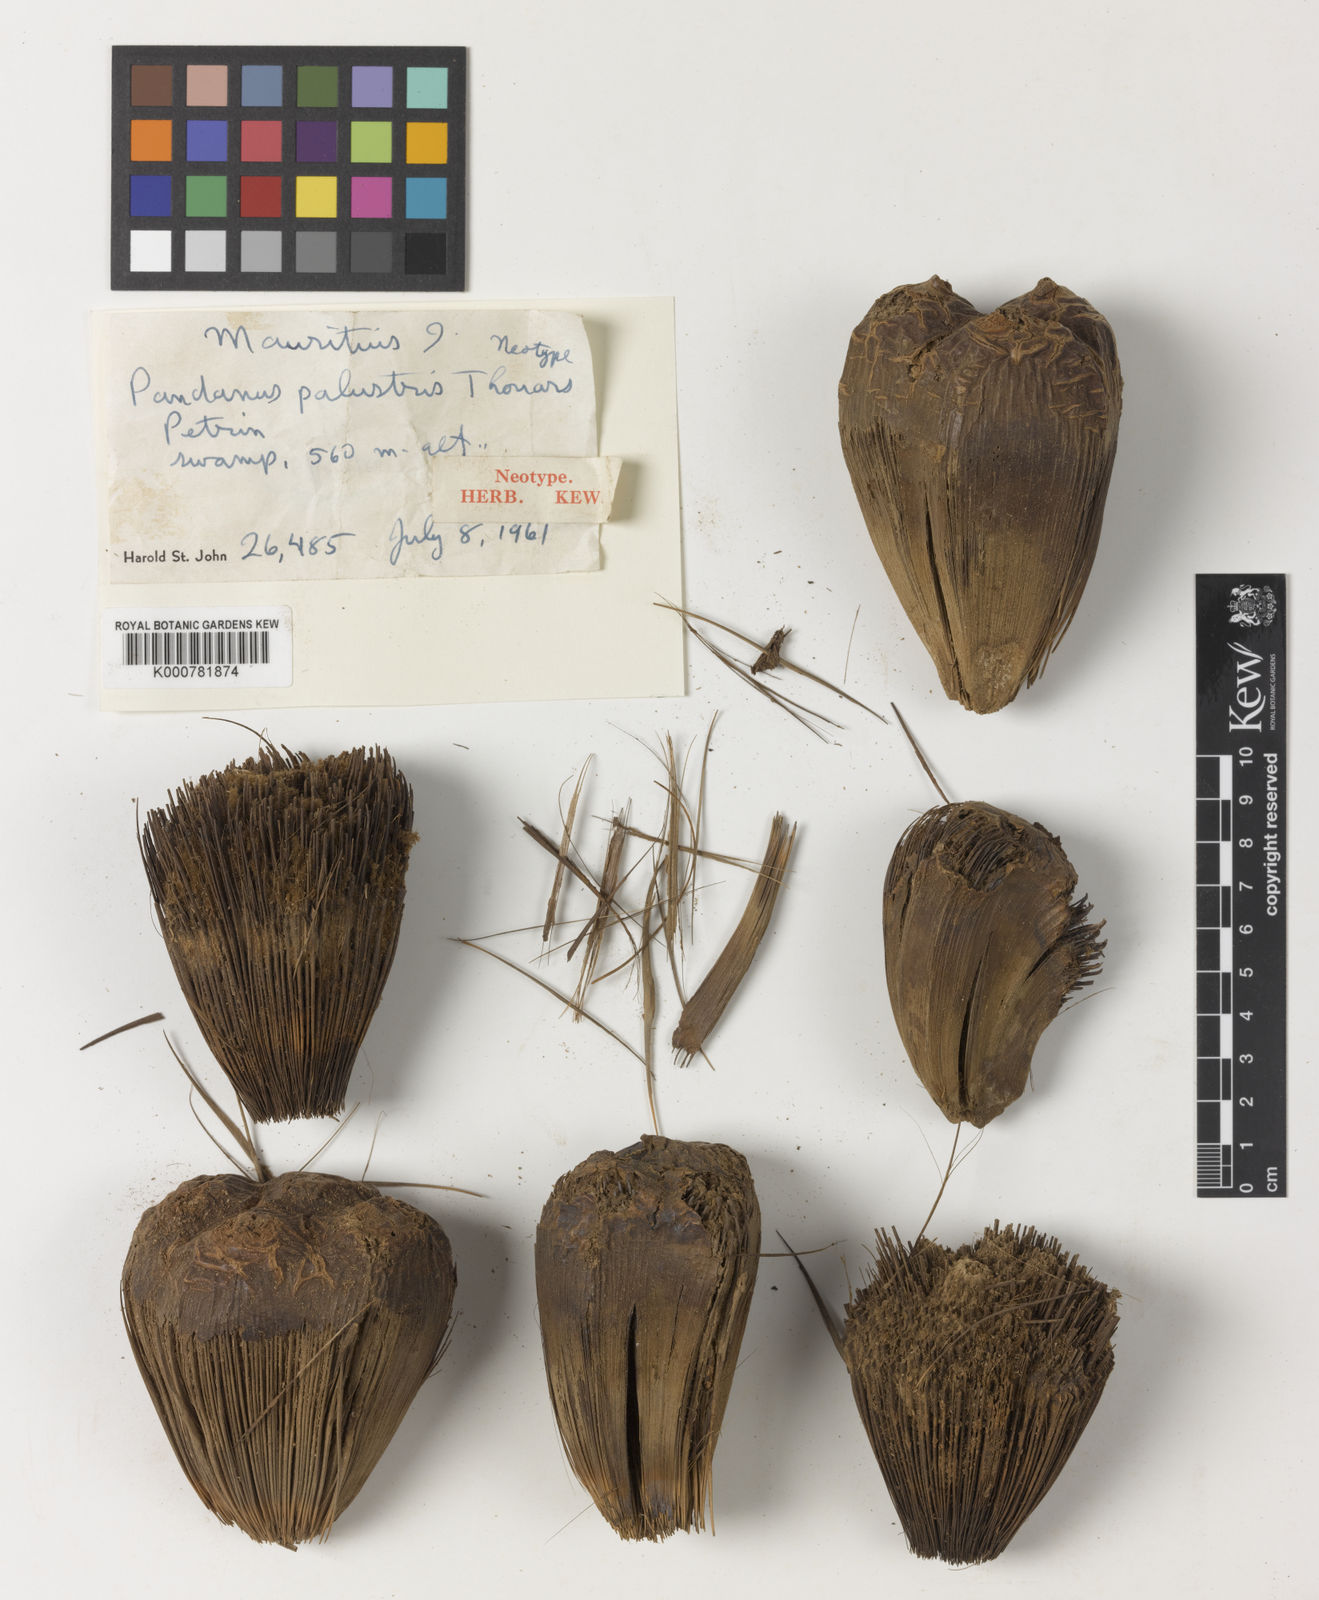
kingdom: Plantae
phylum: Tracheophyta
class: Liliopsida
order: Pandanales
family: Pandanaceae
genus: Pandanus
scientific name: Pandanus palustris
